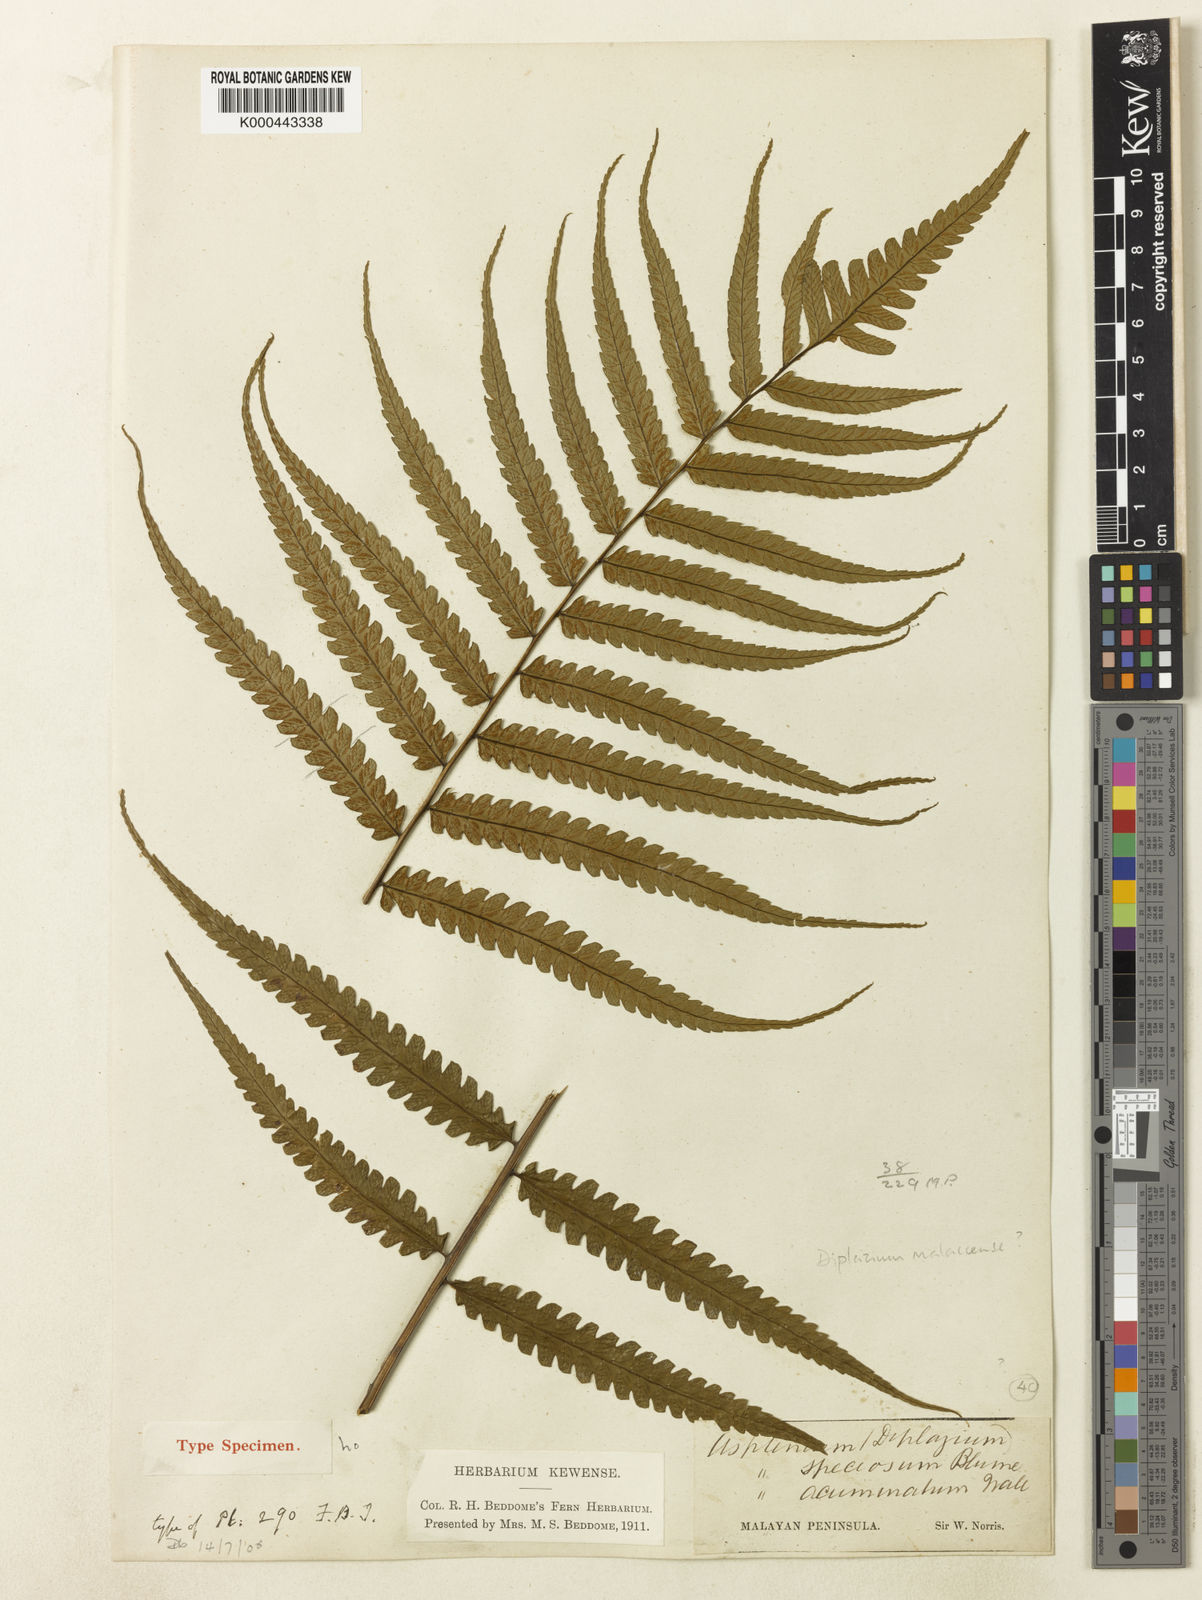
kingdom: Plantae
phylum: Tracheophyta
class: Polypodiopsida
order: Polypodiales
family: Athyriaceae
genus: Diplazium
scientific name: Diplazium holttumii
